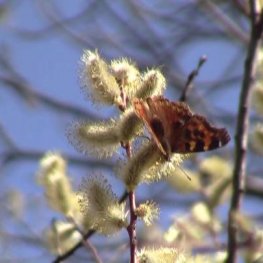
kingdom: Animalia
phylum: Arthropoda
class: Insecta
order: Lepidoptera
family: Nymphalidae
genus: Polygonia
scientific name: Polygonia vaualbum
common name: Compton Tortoiseshell
